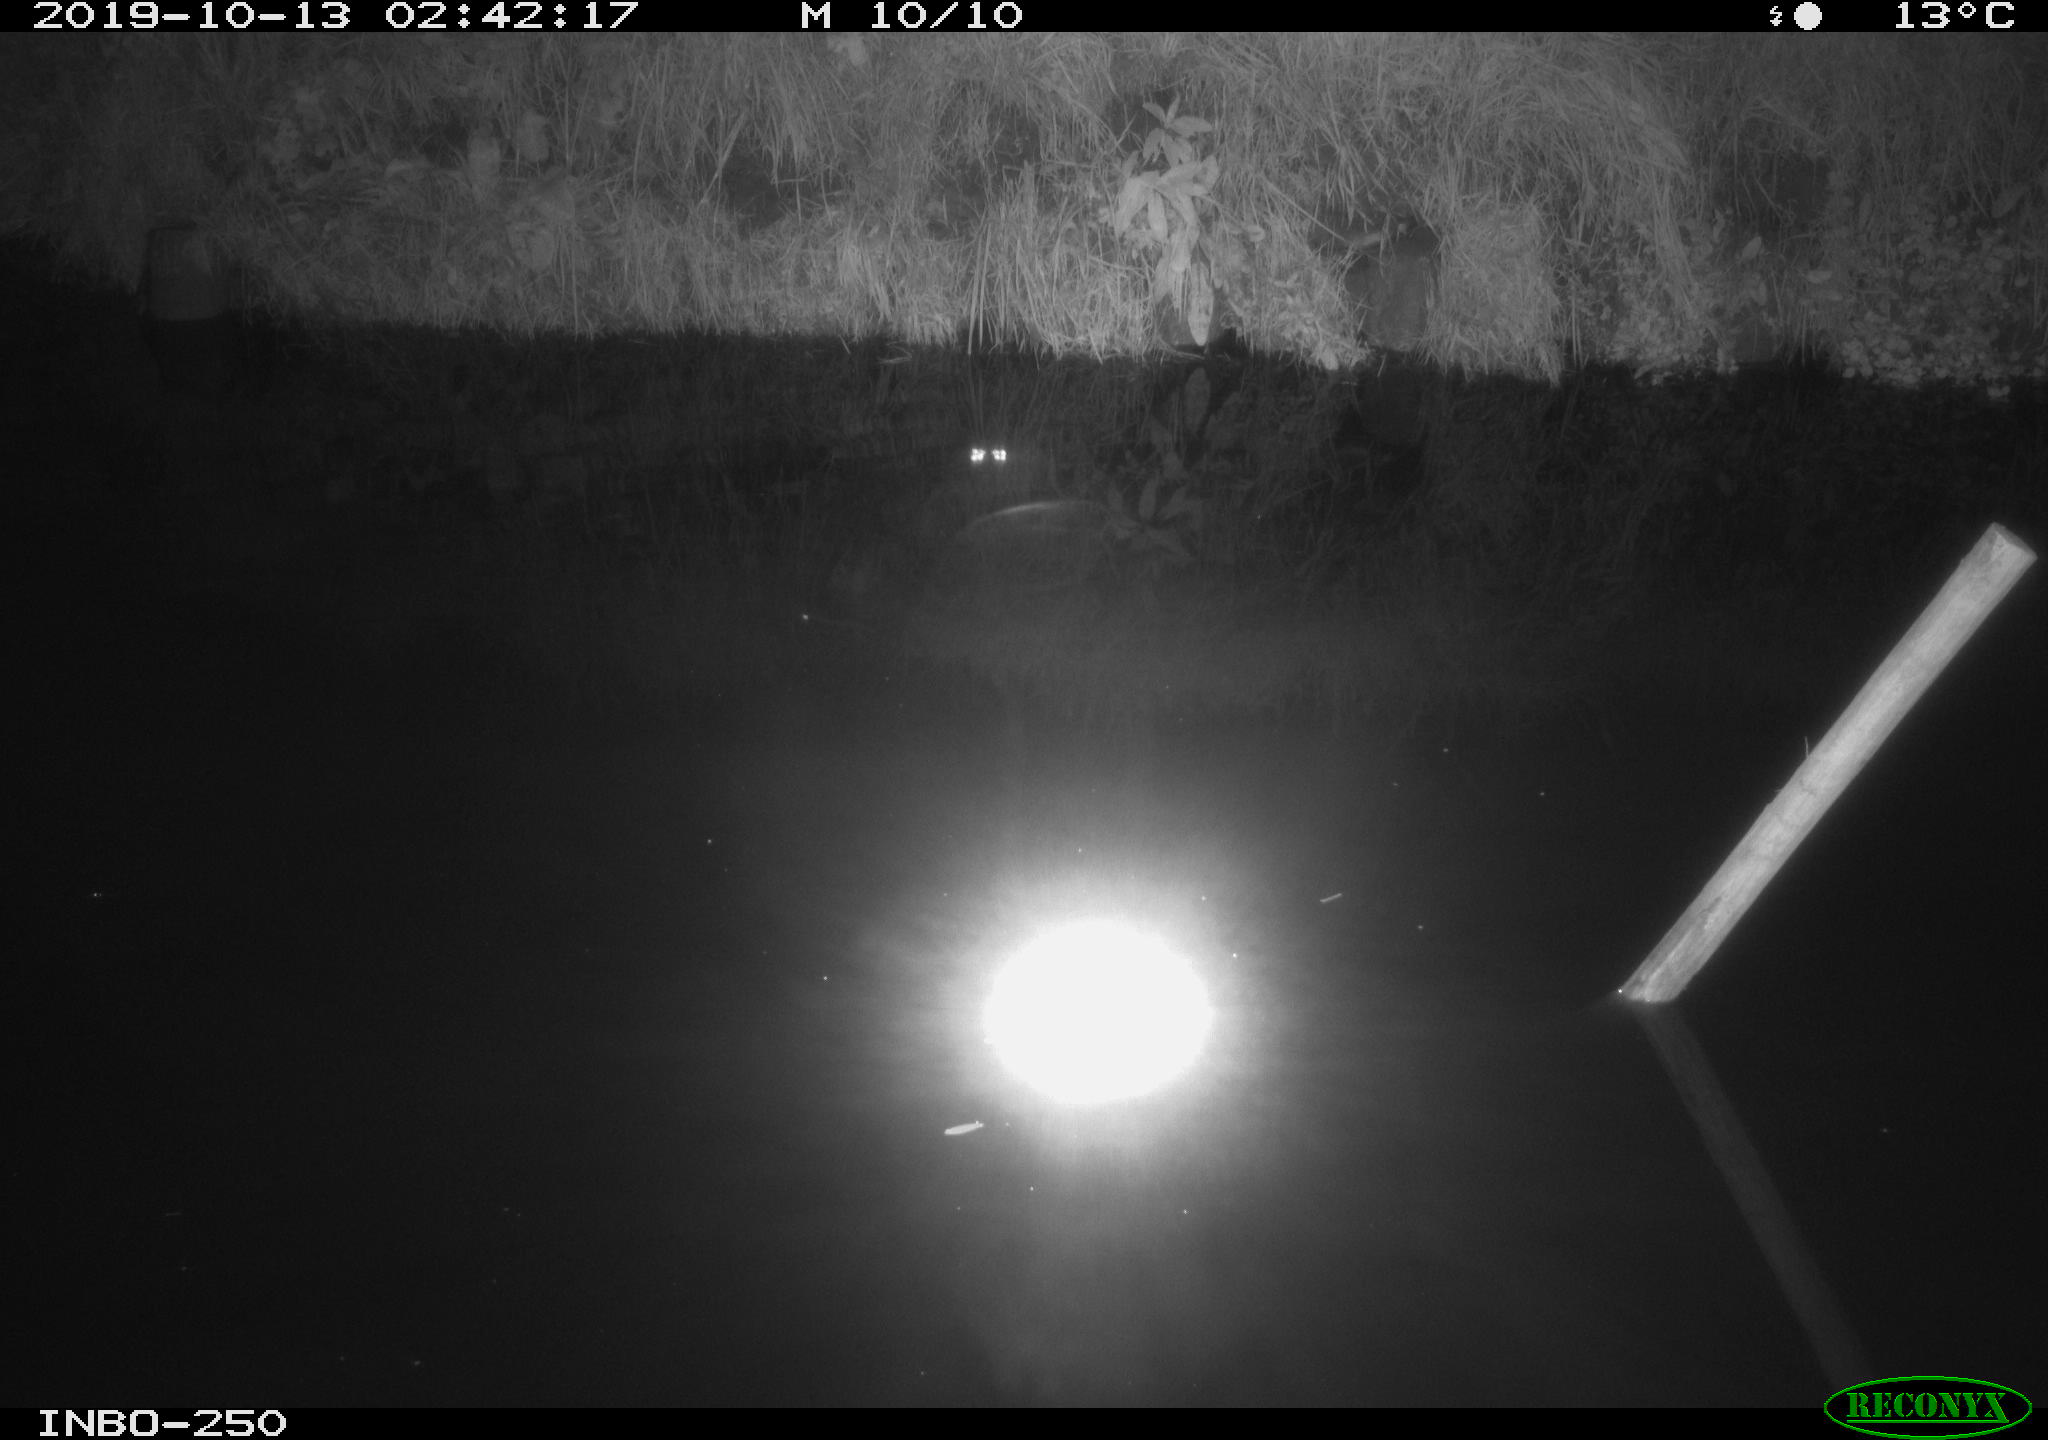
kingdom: Animalia
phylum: Chordata
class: Aves
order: Anseriformes
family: Anatidae
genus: Anas
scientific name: Anas platyrhynchos
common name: Mallard
